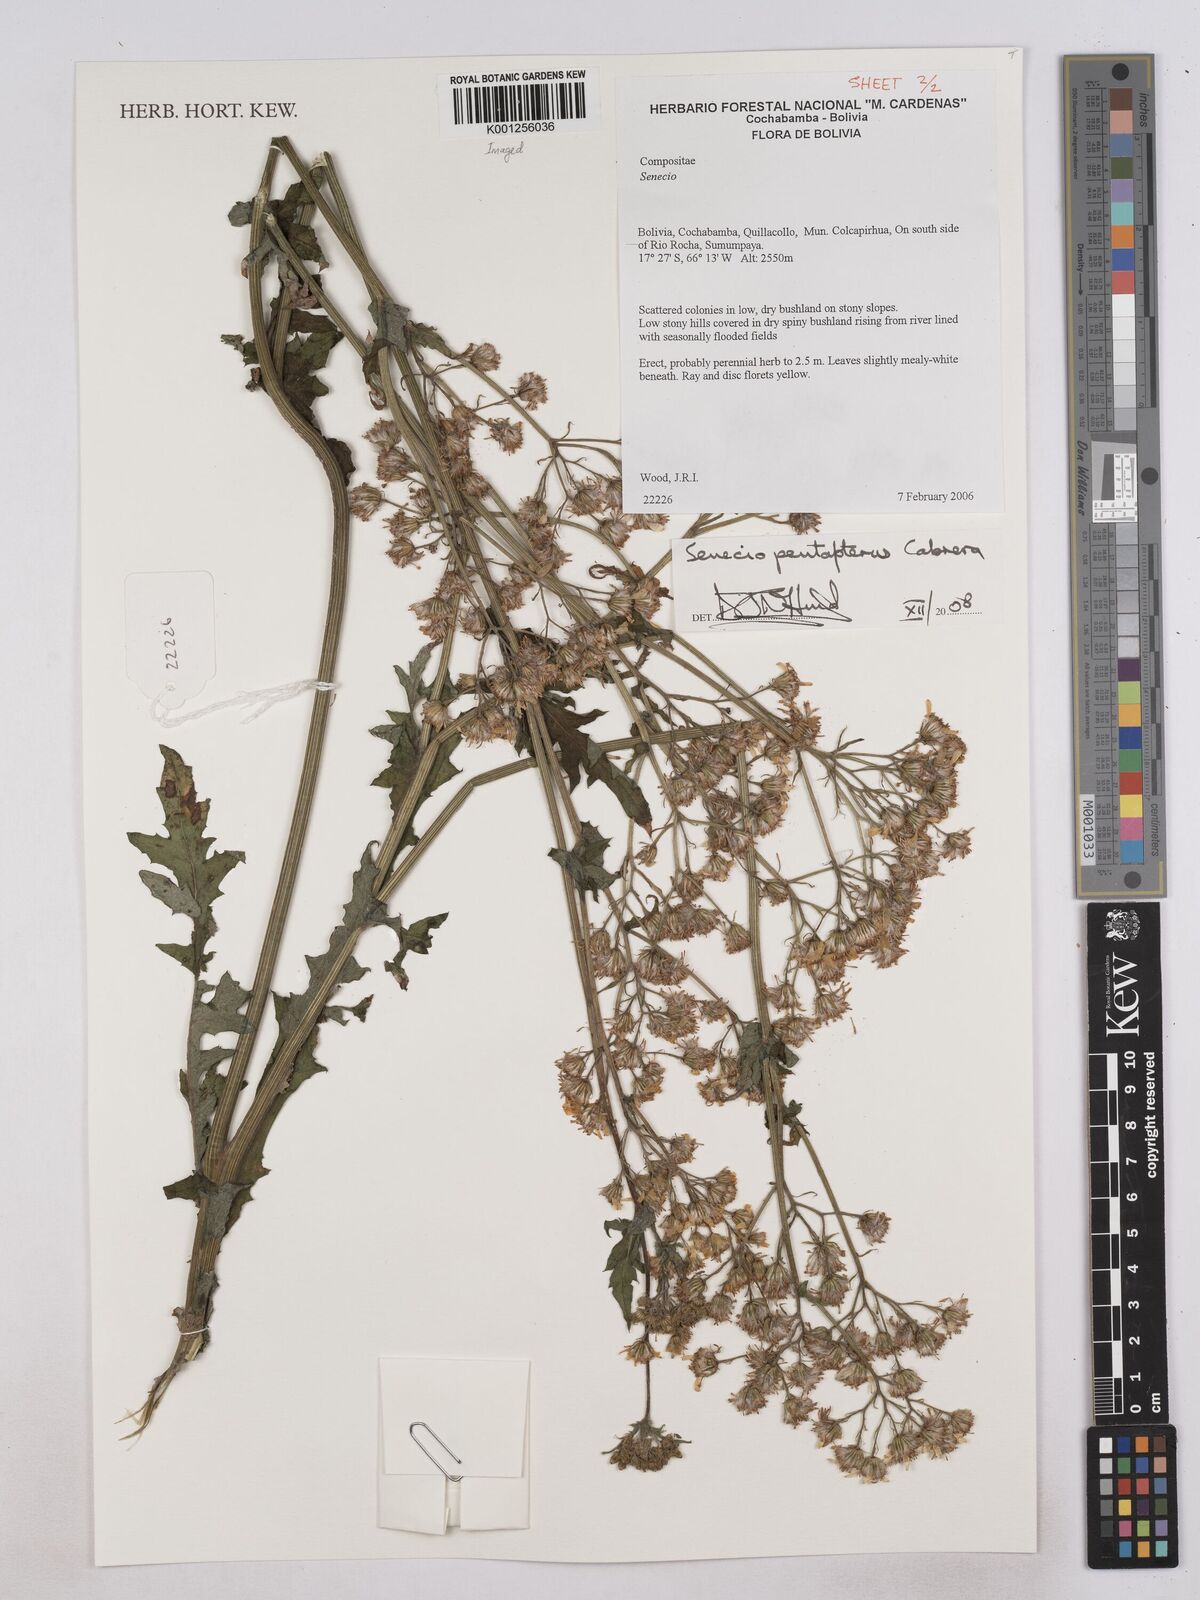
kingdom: Plantae
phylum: Tracheophyta
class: Magnoliopsida
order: Asterales
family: Asteraceae
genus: Senecio
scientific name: Senecio pentapterus
